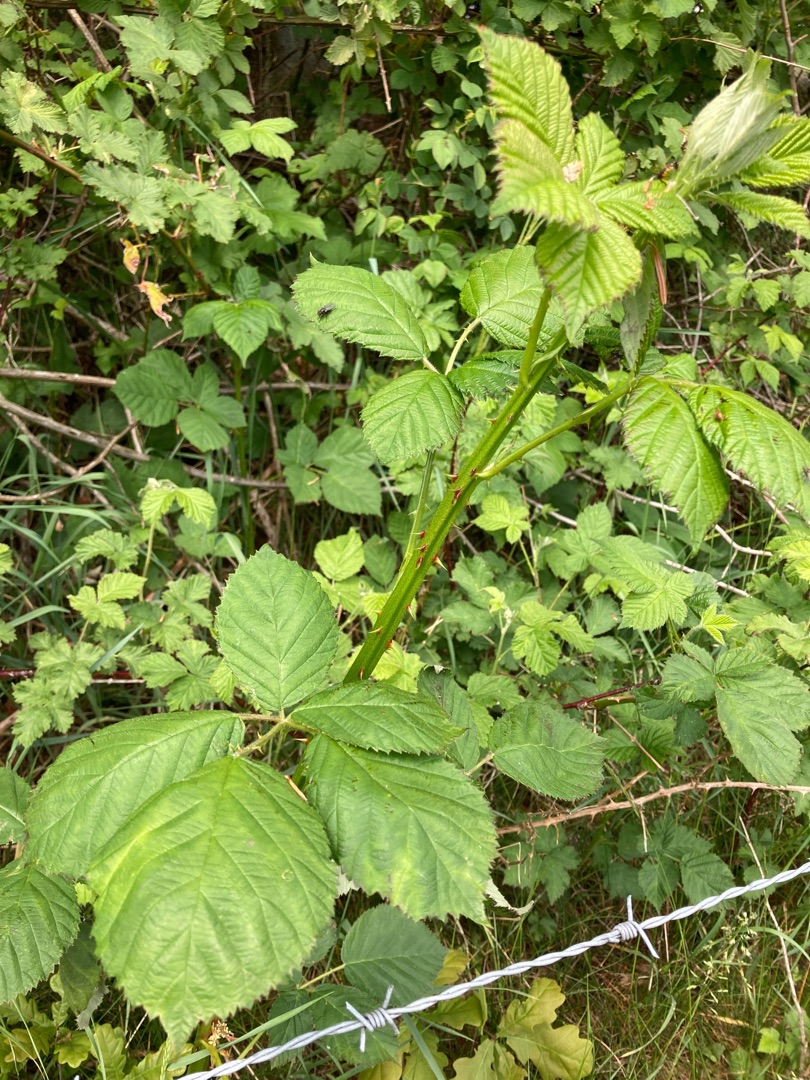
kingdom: Plantae
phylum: Tracheophyta
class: Magnoliopsida
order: Rosales
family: Rosaceae
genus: Rubus
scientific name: Rubus armeniacus
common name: Armensk brombær
